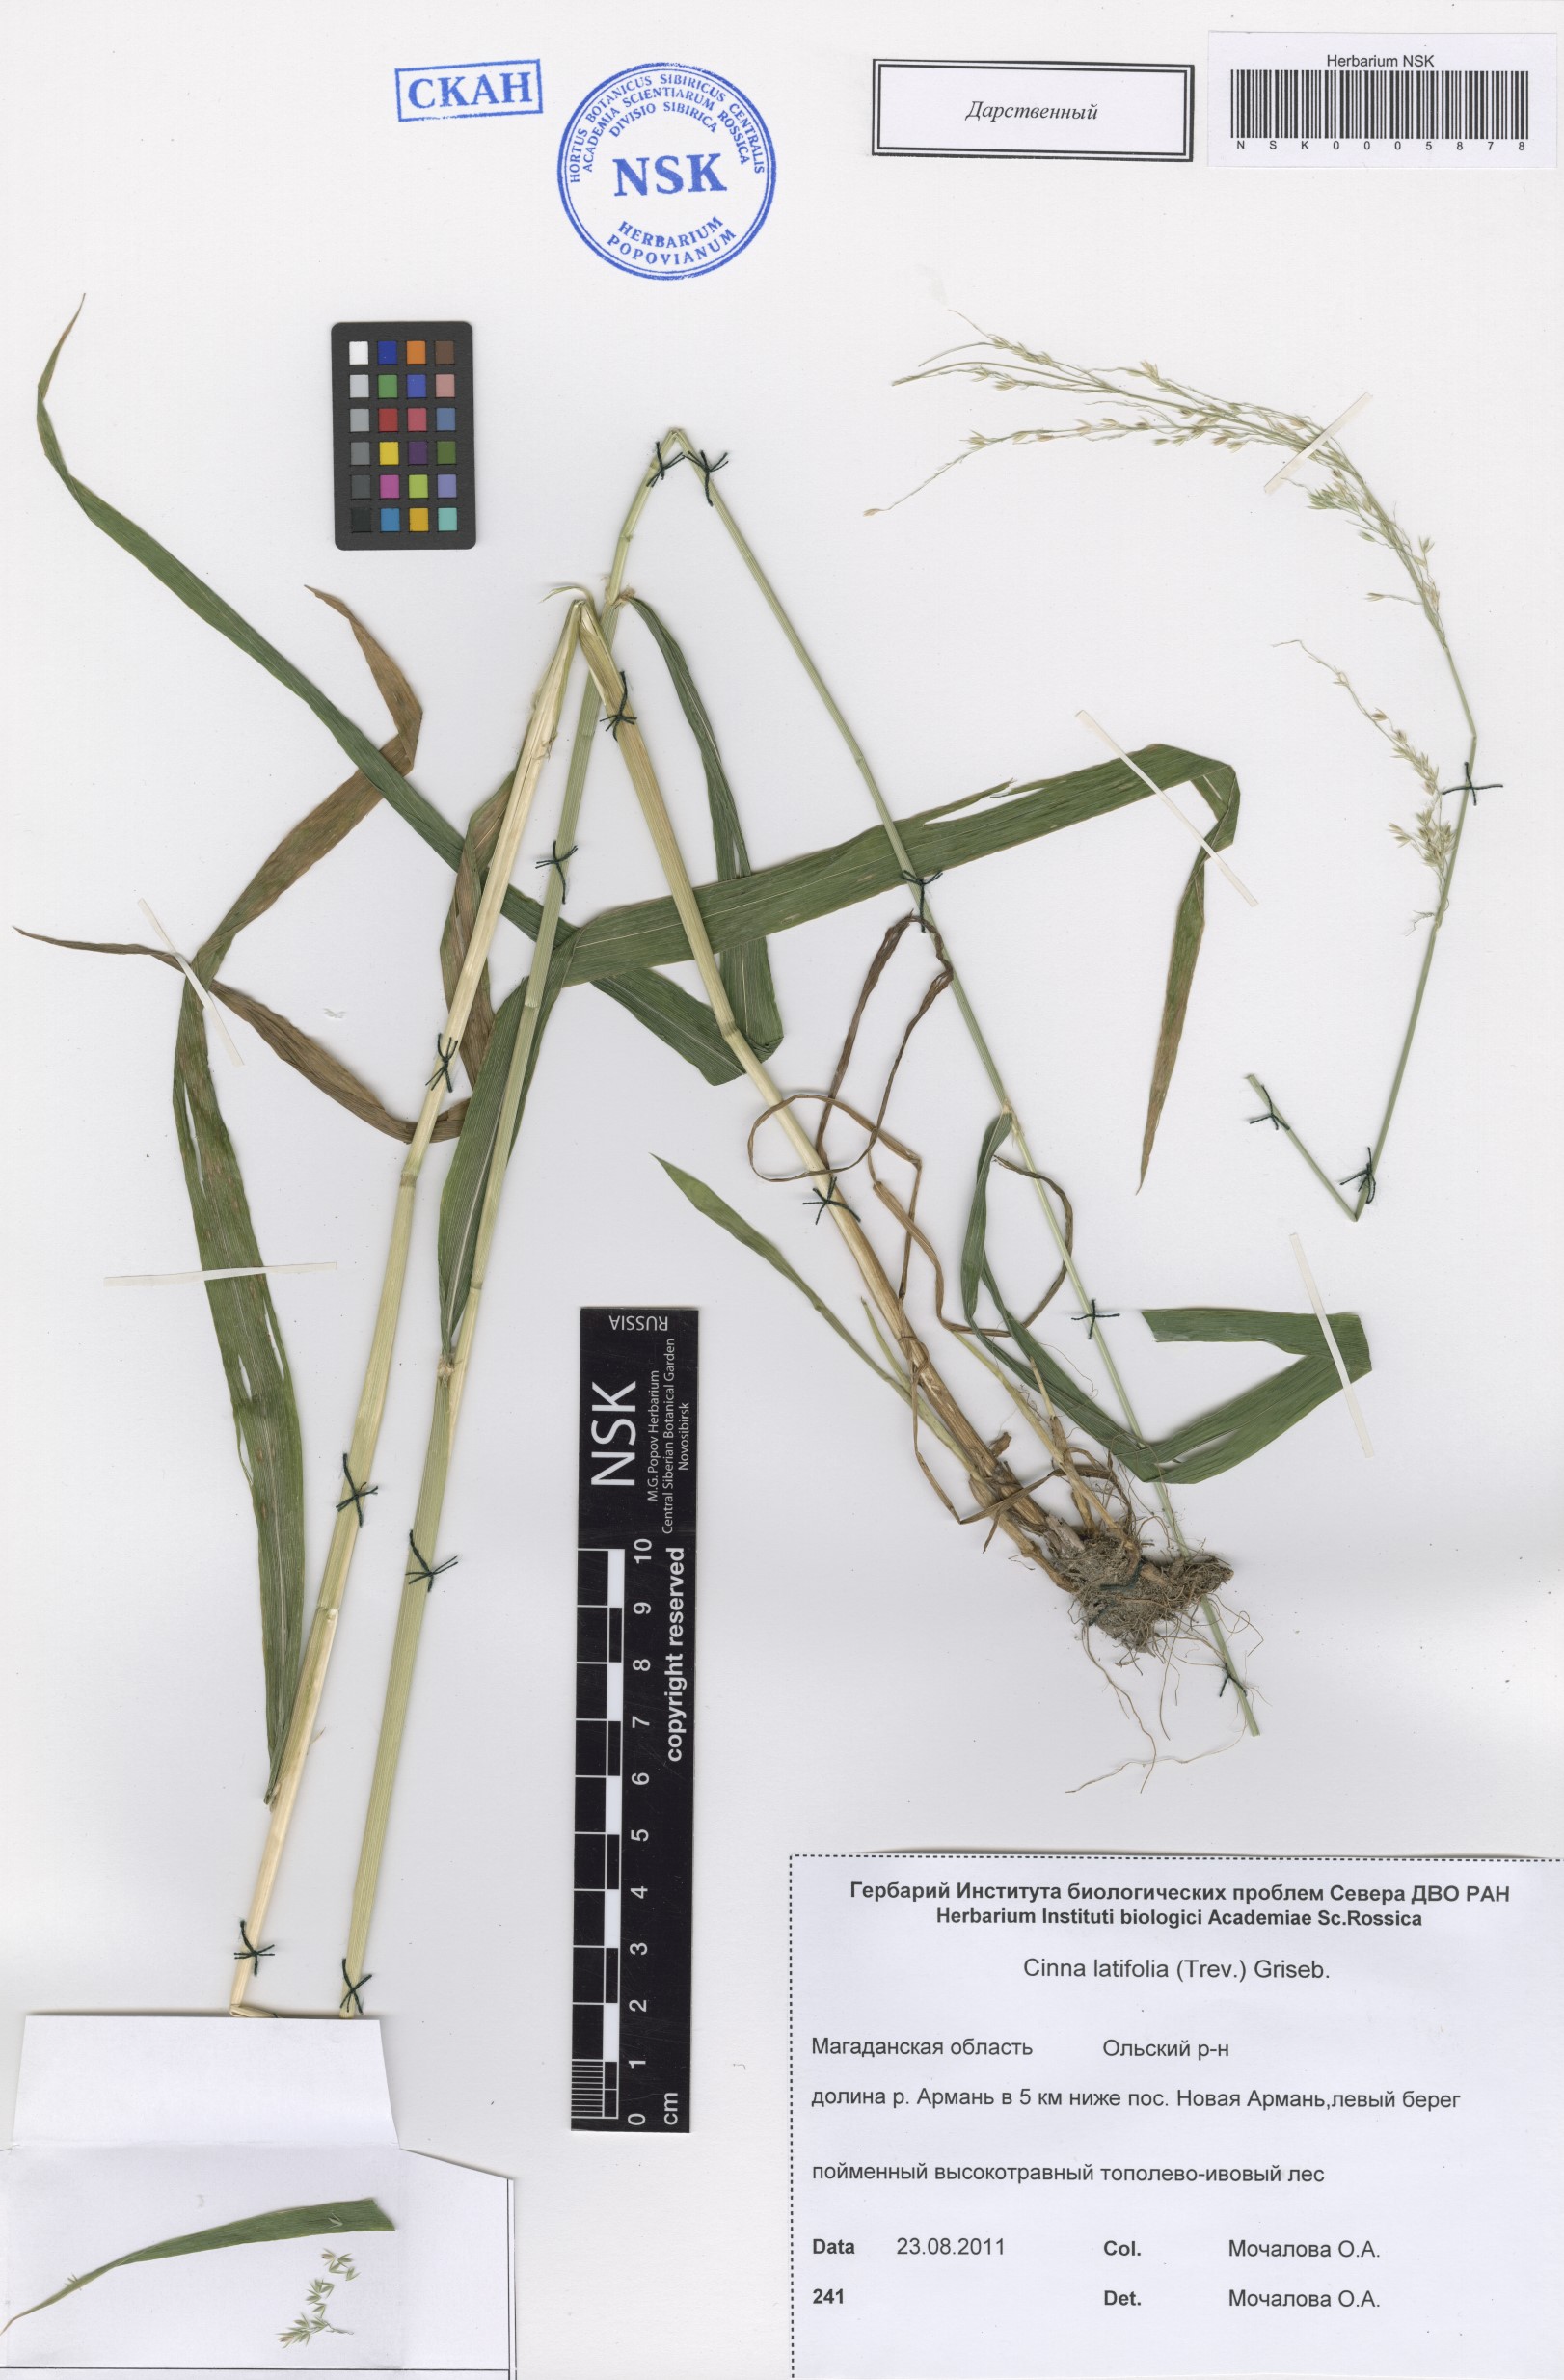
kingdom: Plantae
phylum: Tracheophyta
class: Liliopsida
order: Poales
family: Poaceae
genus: Cinna
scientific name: Cinna latifolia
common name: Drooping woodreed
